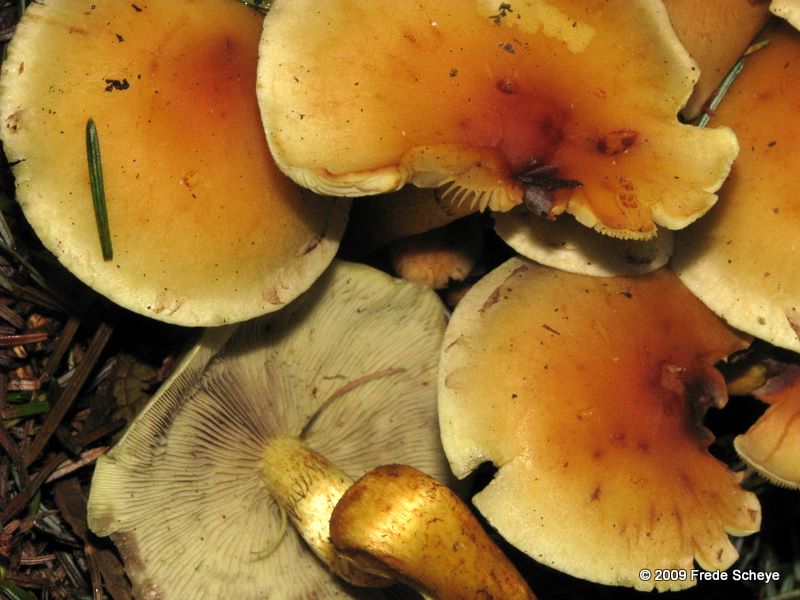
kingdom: Fungi
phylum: Basidiomycota
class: Agaricomycetes
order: Agaricales
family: Strophariaceae
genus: Hypholoma
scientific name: Hypholoma fasciculare
